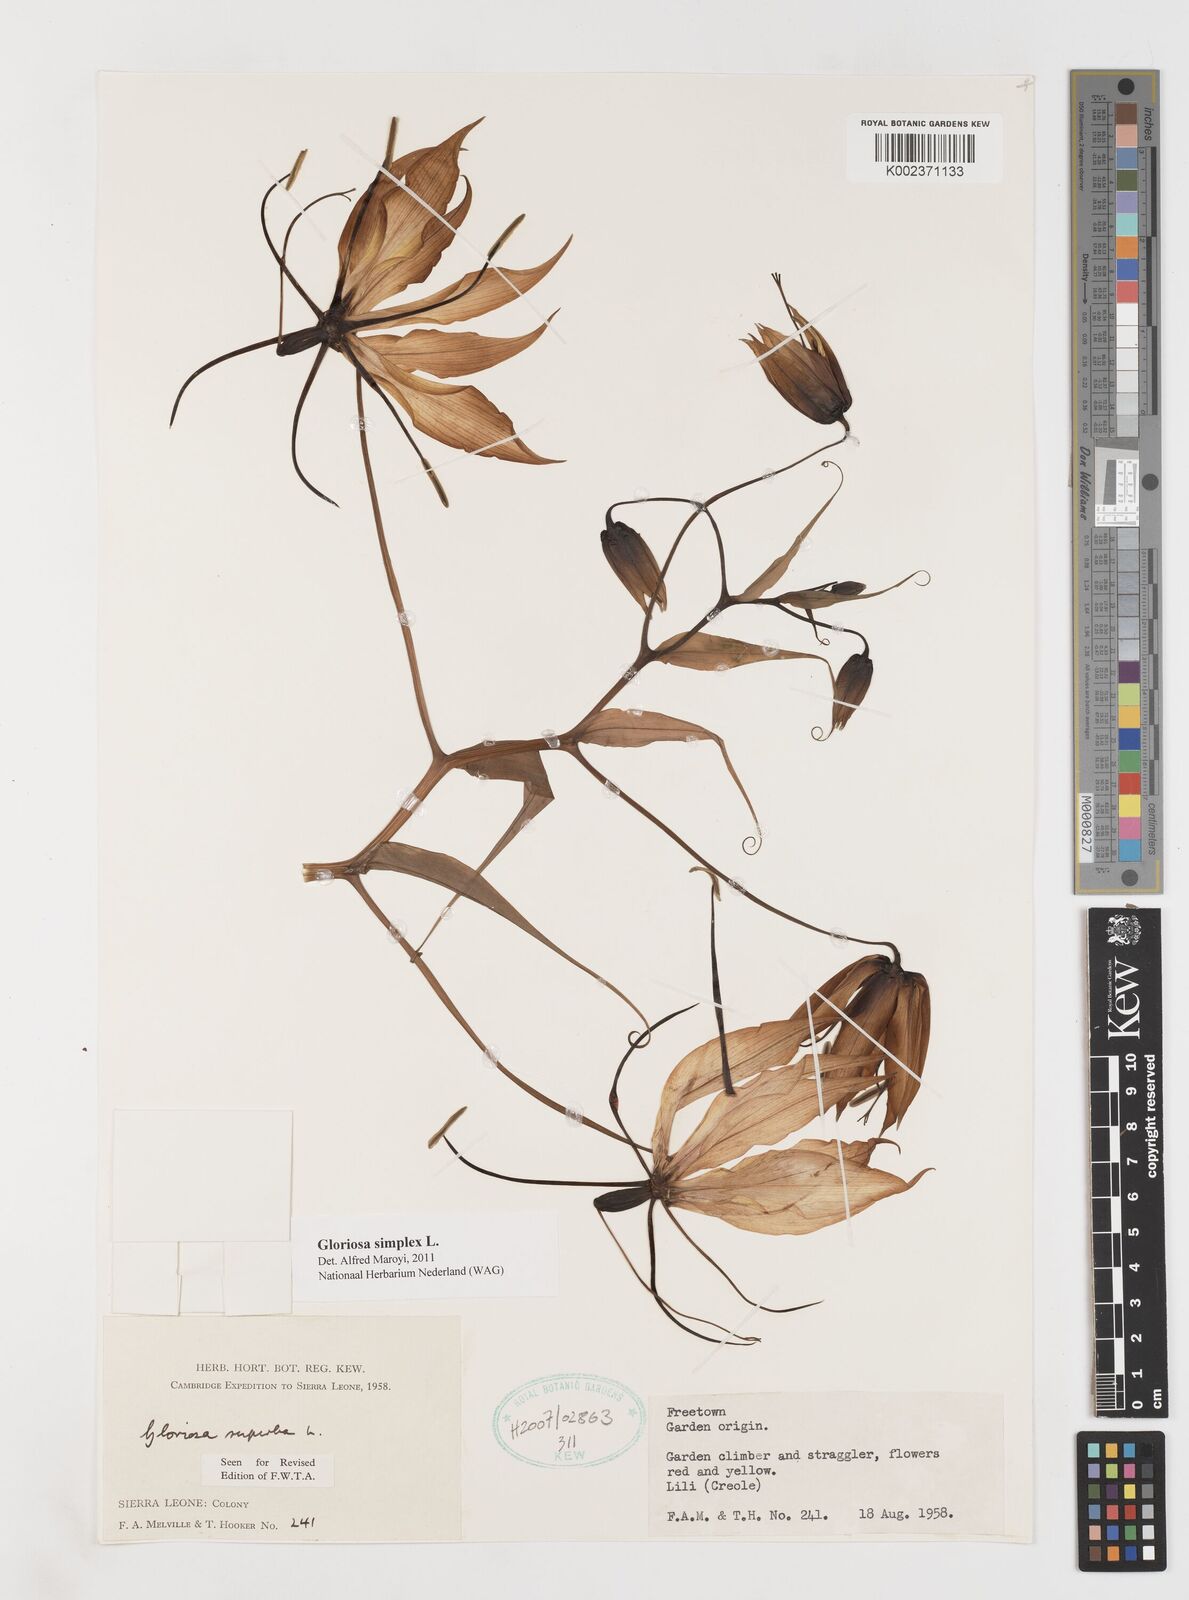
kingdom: Plantae
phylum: Tracheophyta
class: Liliopsida
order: Liliales
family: Colchicaceae
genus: Gloriosa
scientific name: Gloriosa simplex
